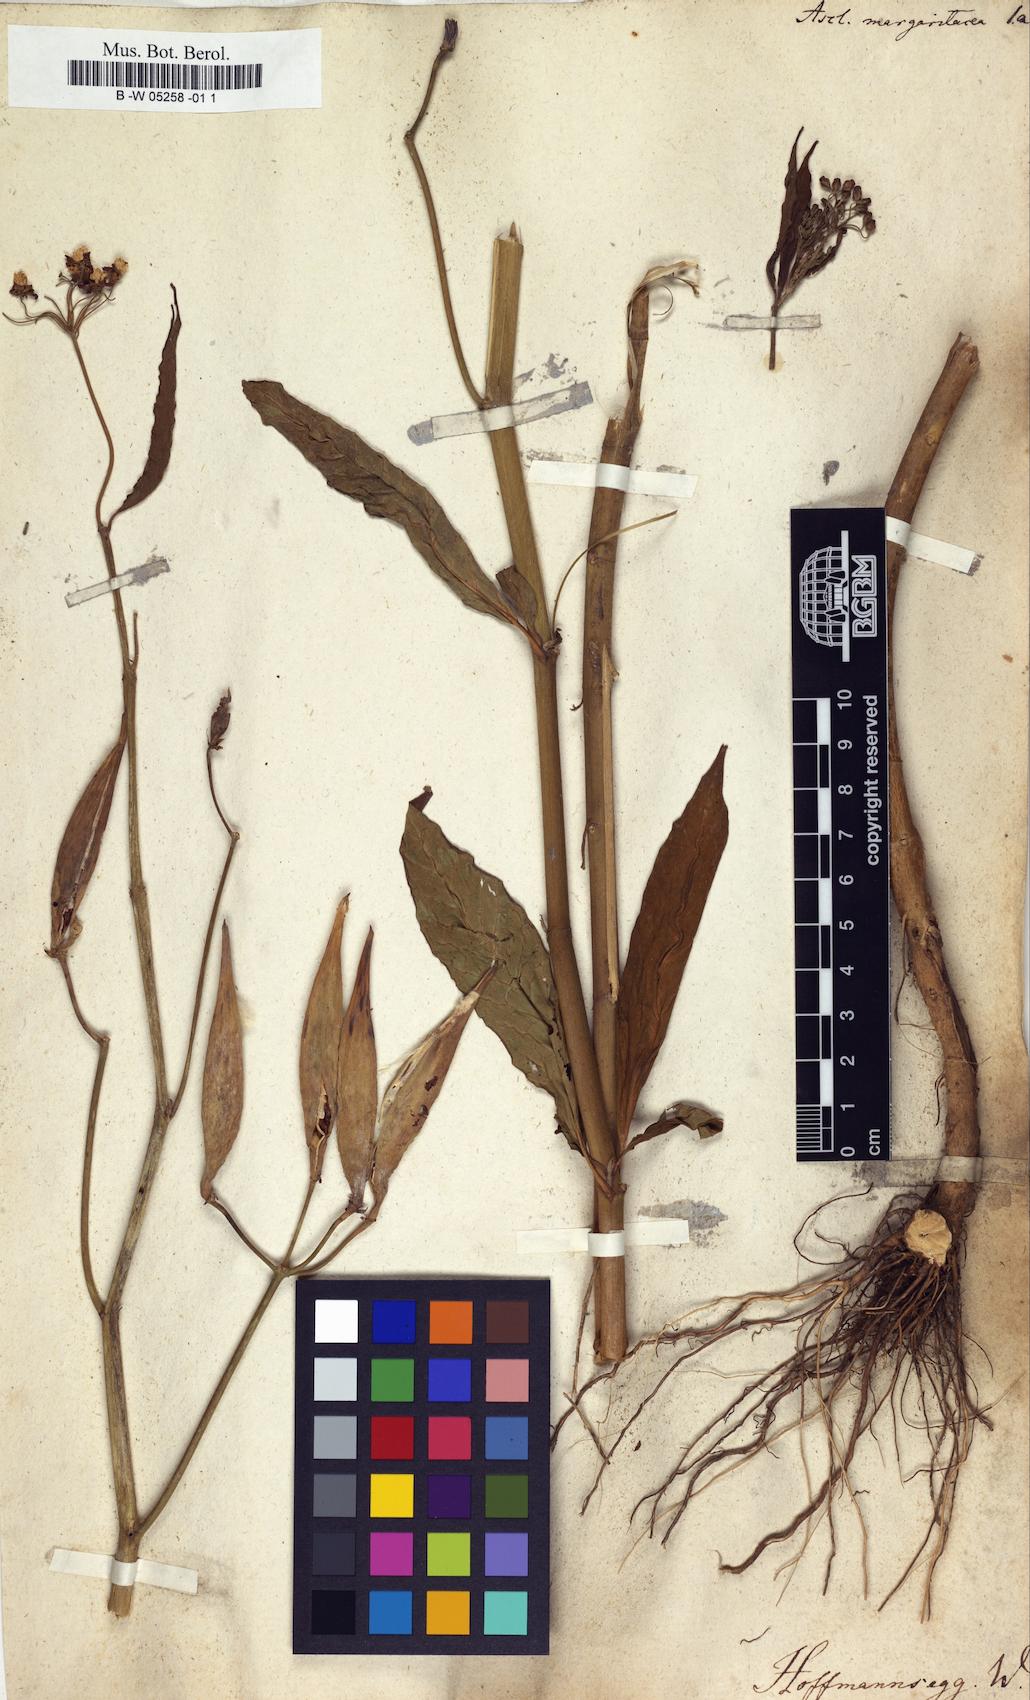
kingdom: Plantae
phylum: Tracheophyta
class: Magnoliopsida
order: Gentianales
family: Apocynaceae
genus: Asclepias
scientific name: Asclepias curassavica
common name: Bloodflower
